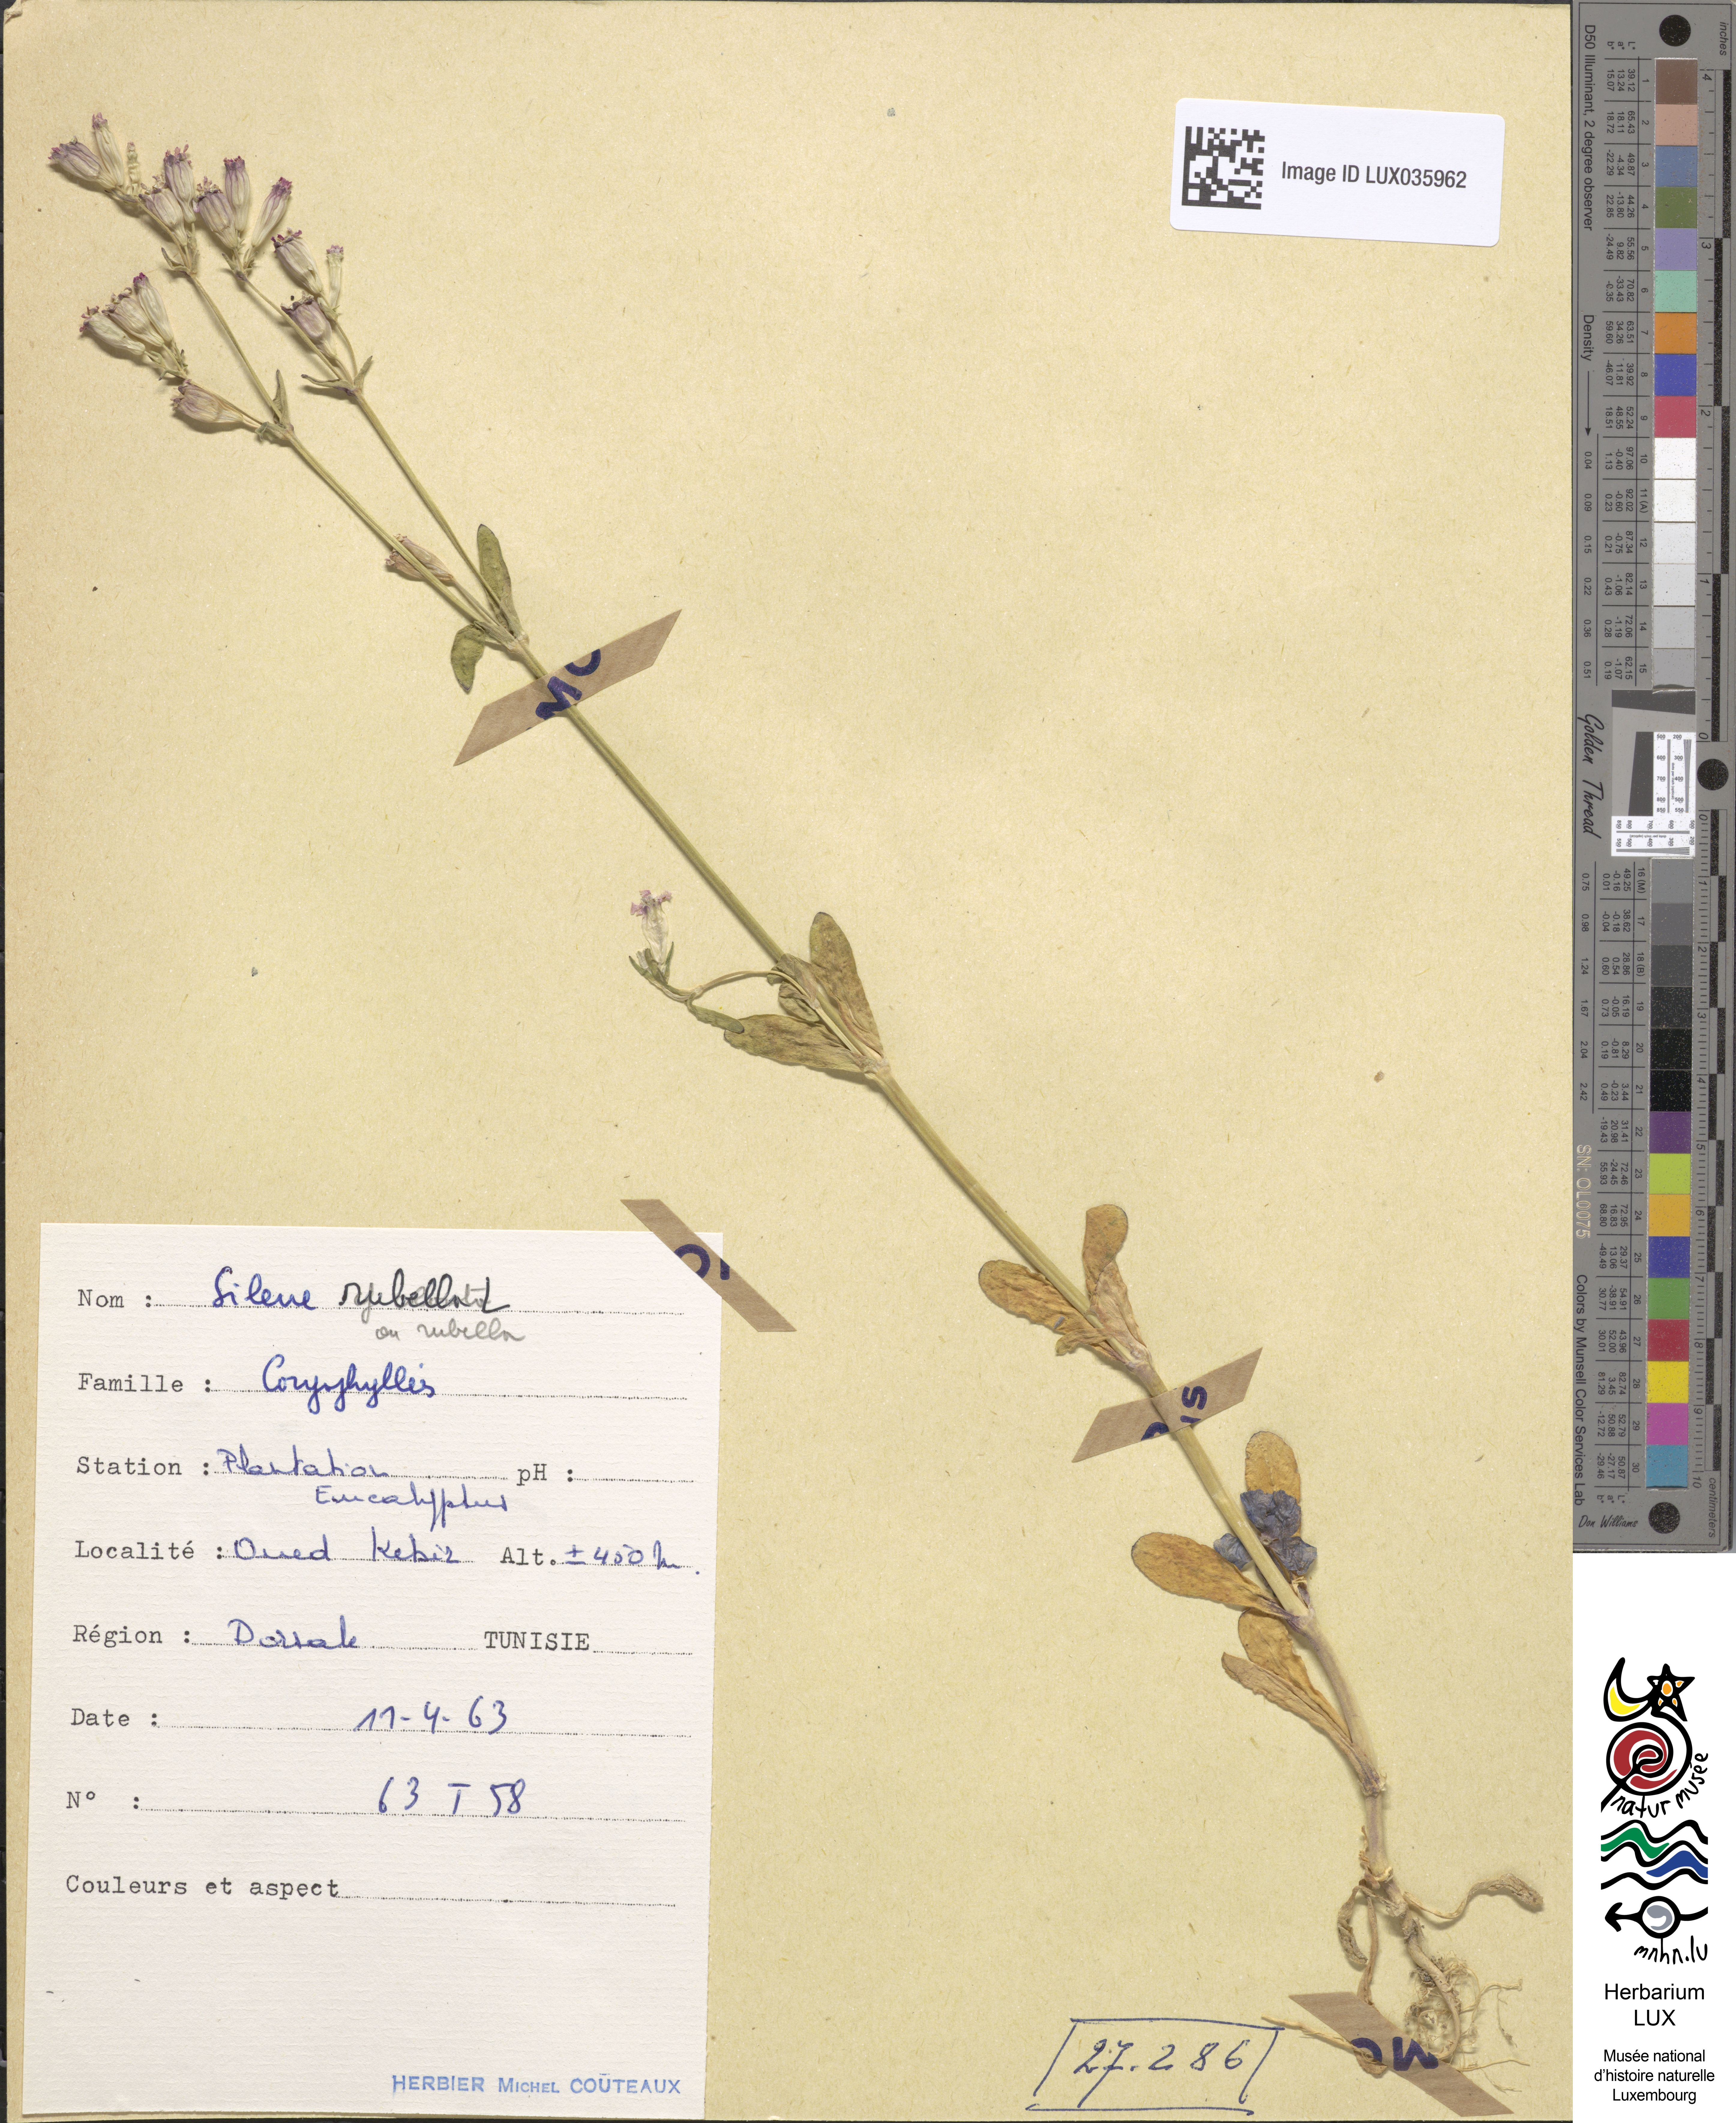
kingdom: Plantae
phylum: Tracheophyta
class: Magnoliopsida
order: Caryophyllales
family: Caryophyllaceae
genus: Silene
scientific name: Silene rubella
